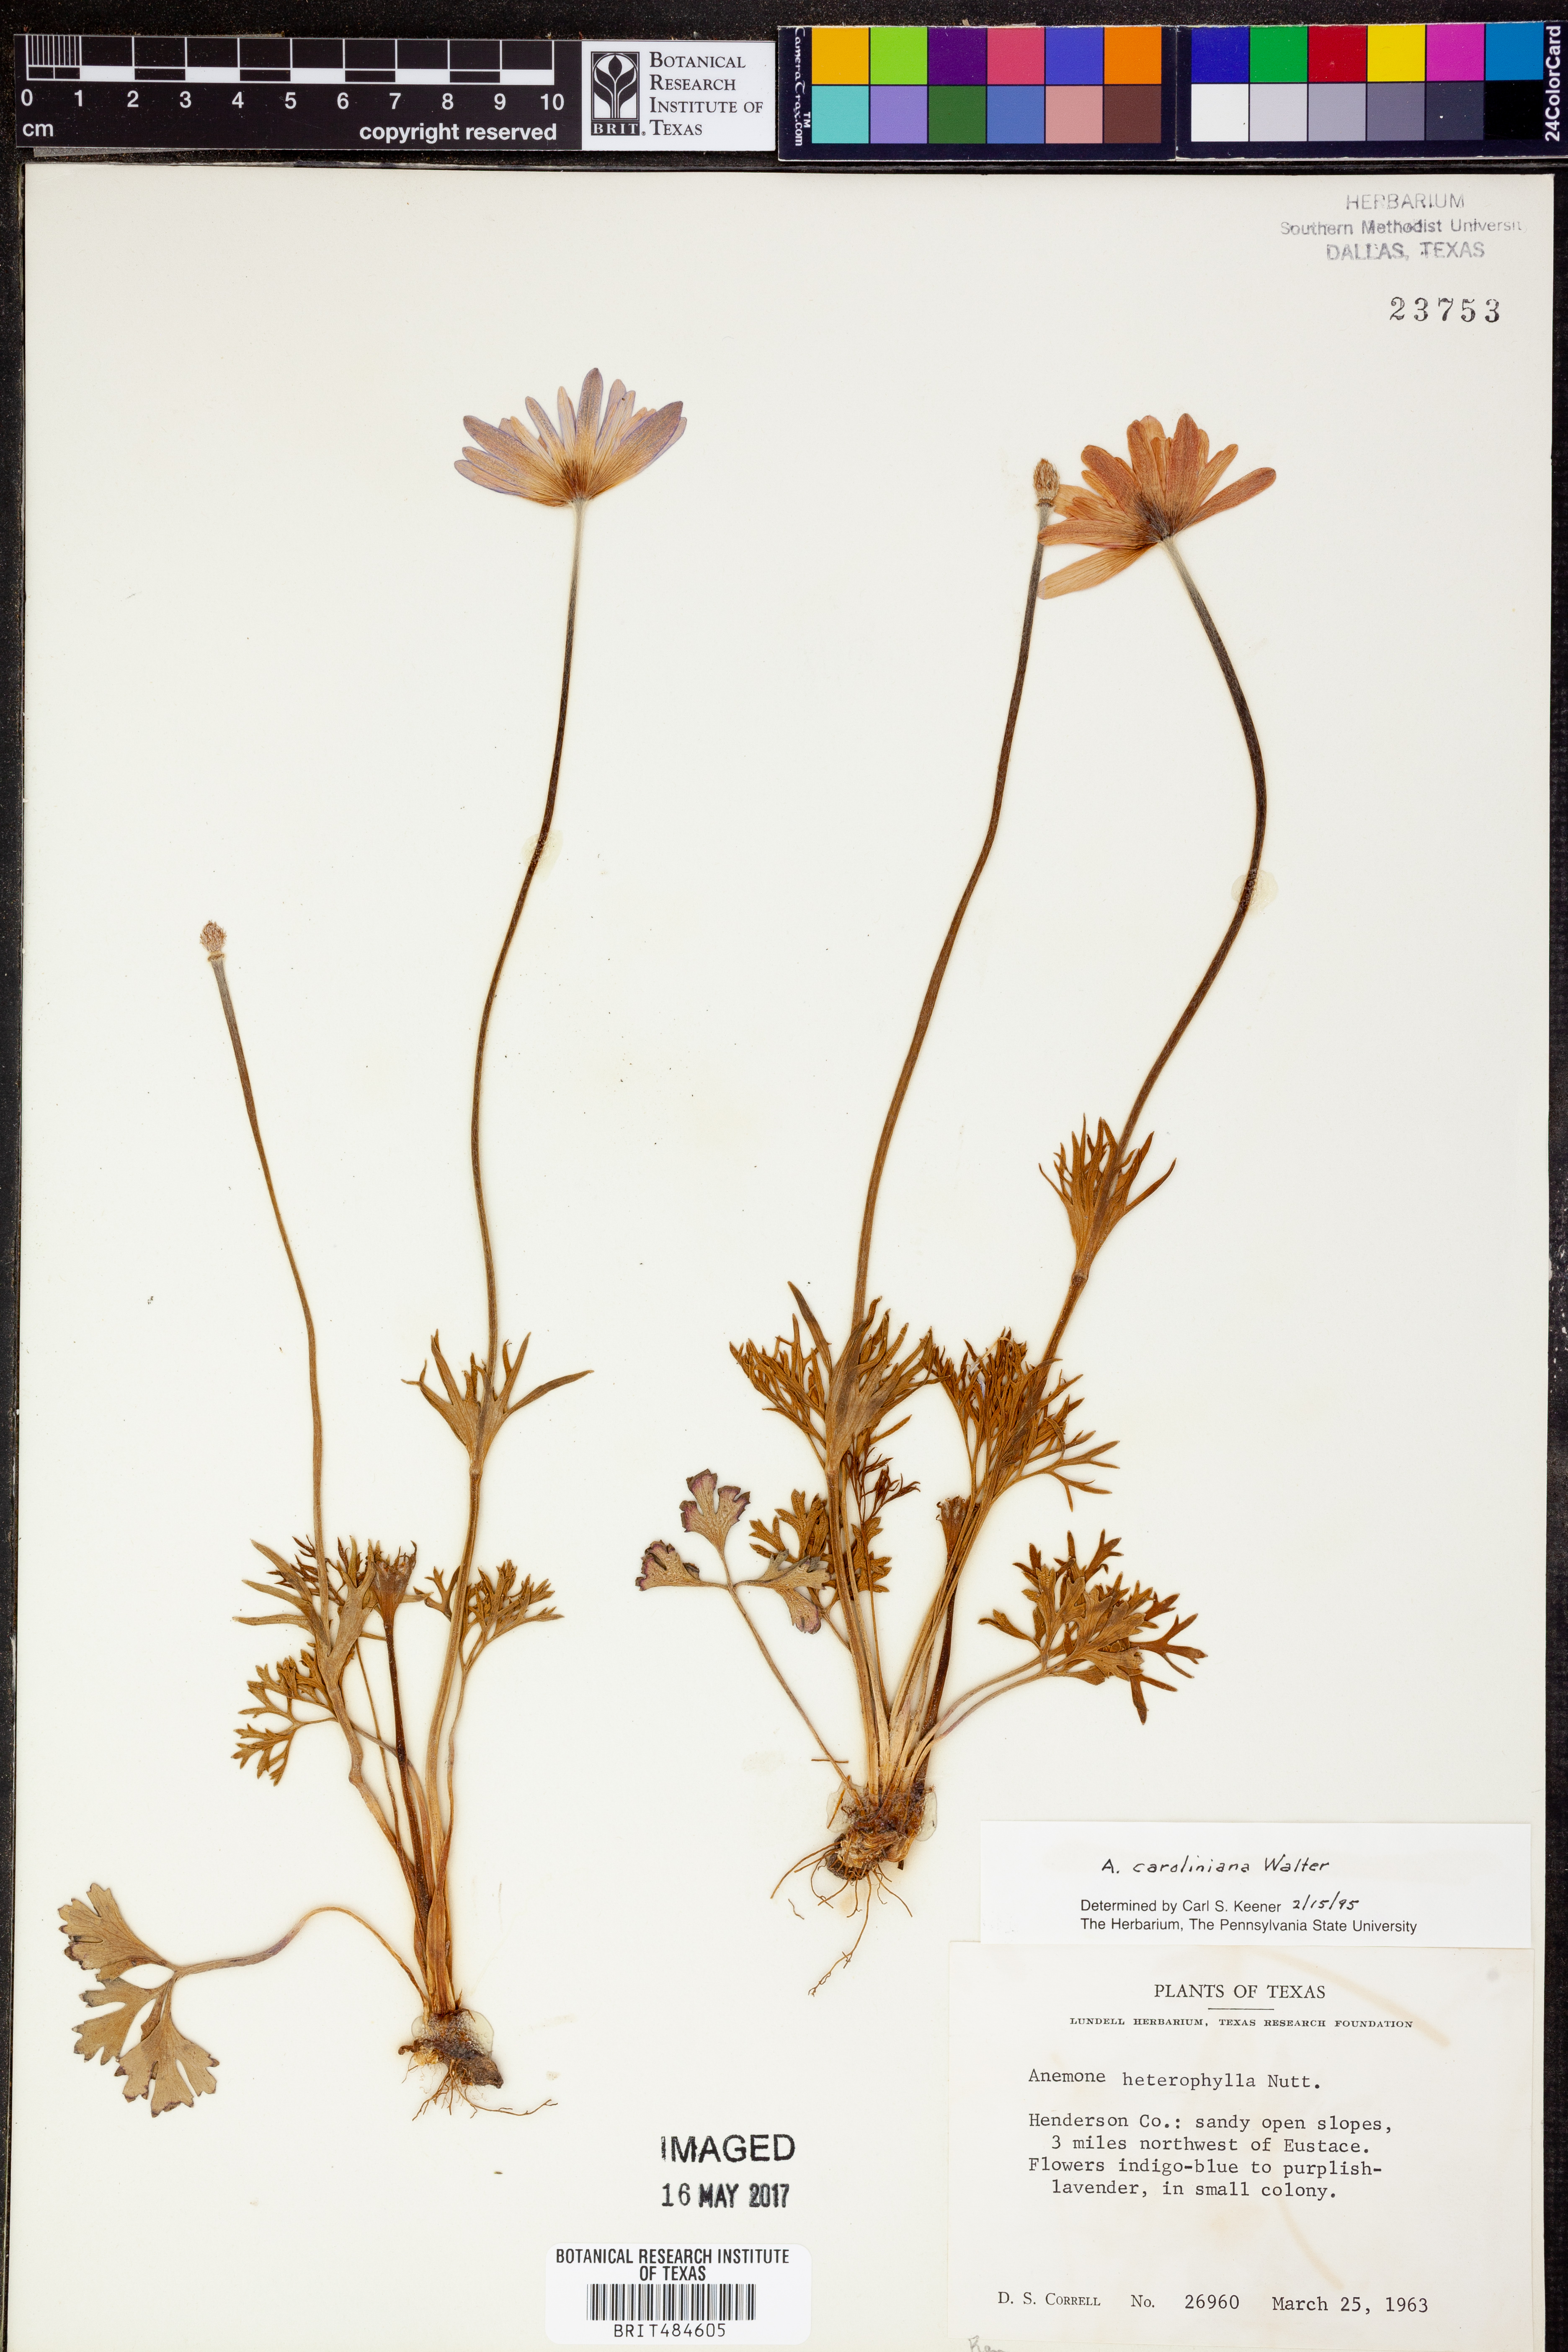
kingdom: Plantae
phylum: Tracheophyta
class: Magnoliopsida
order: Ranunculales
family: Ranunculaceae
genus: Anemone
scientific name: Anemone caroliniana
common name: Carolina anemone
